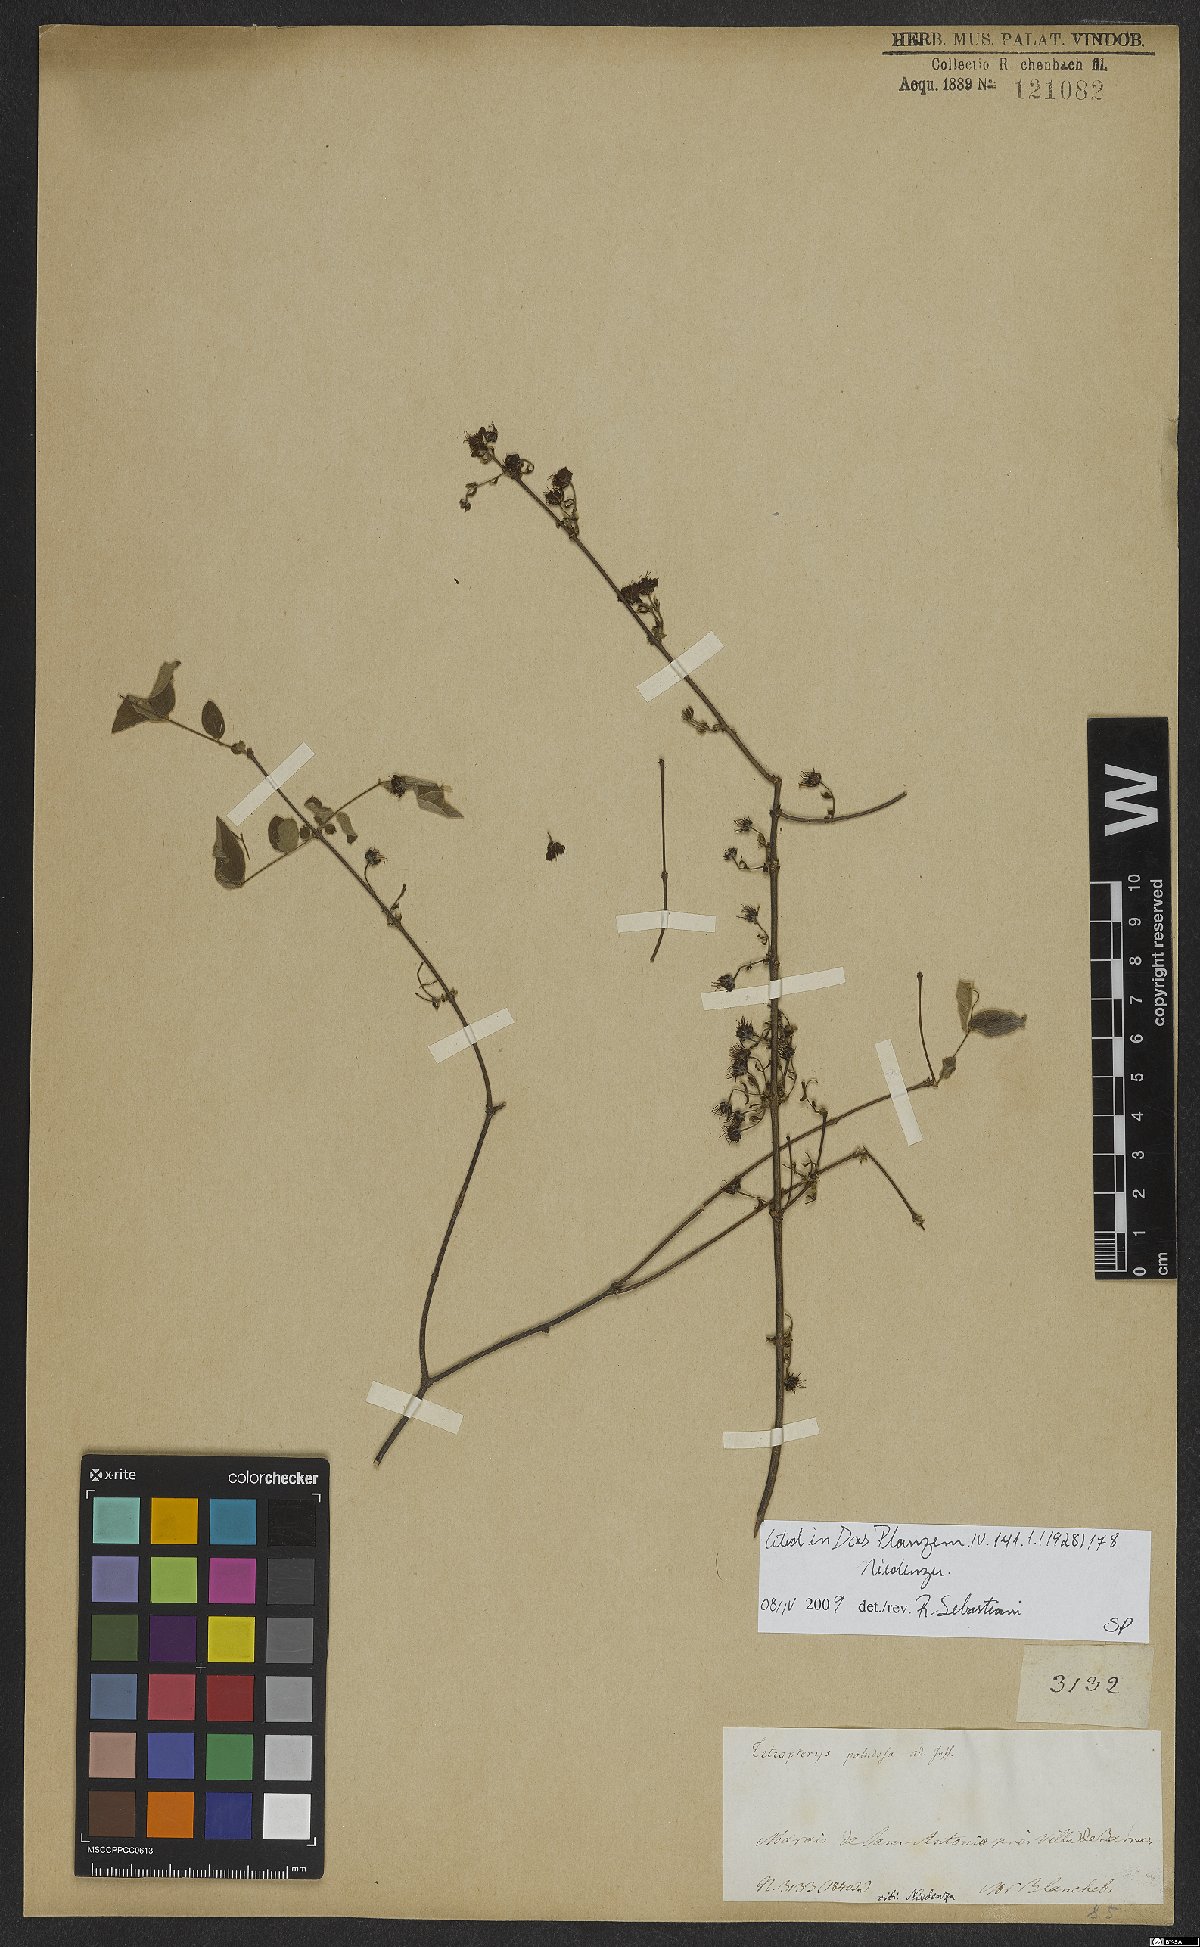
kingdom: Plantae
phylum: Tracheophyta
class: Magnoliopsida
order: Malpighiales
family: Malpighiaceae
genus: Glicophyllum
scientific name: Glicophyllum paludosum
